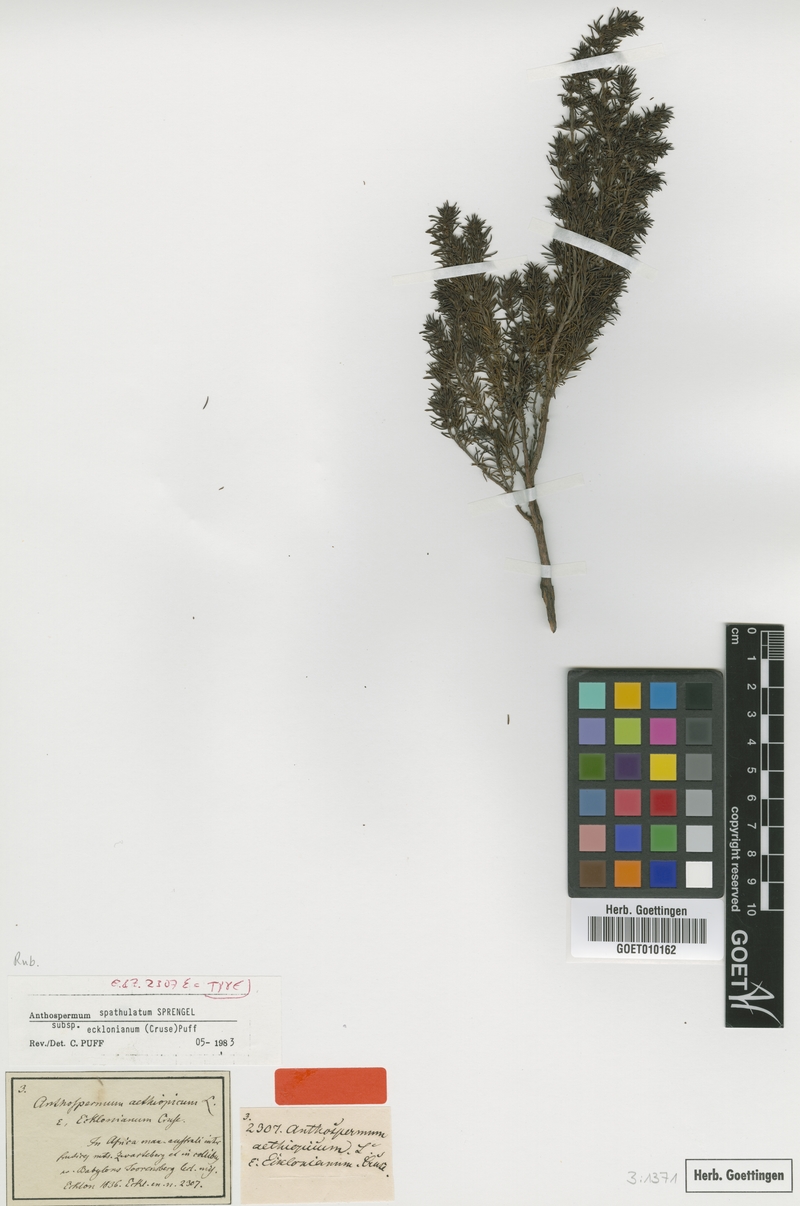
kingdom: Plantae
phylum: Tracheophyta
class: Magnoliopsida
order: Gentianales
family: Rubiaceae
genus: Anthospermum
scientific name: Anthospermum spathulatum
